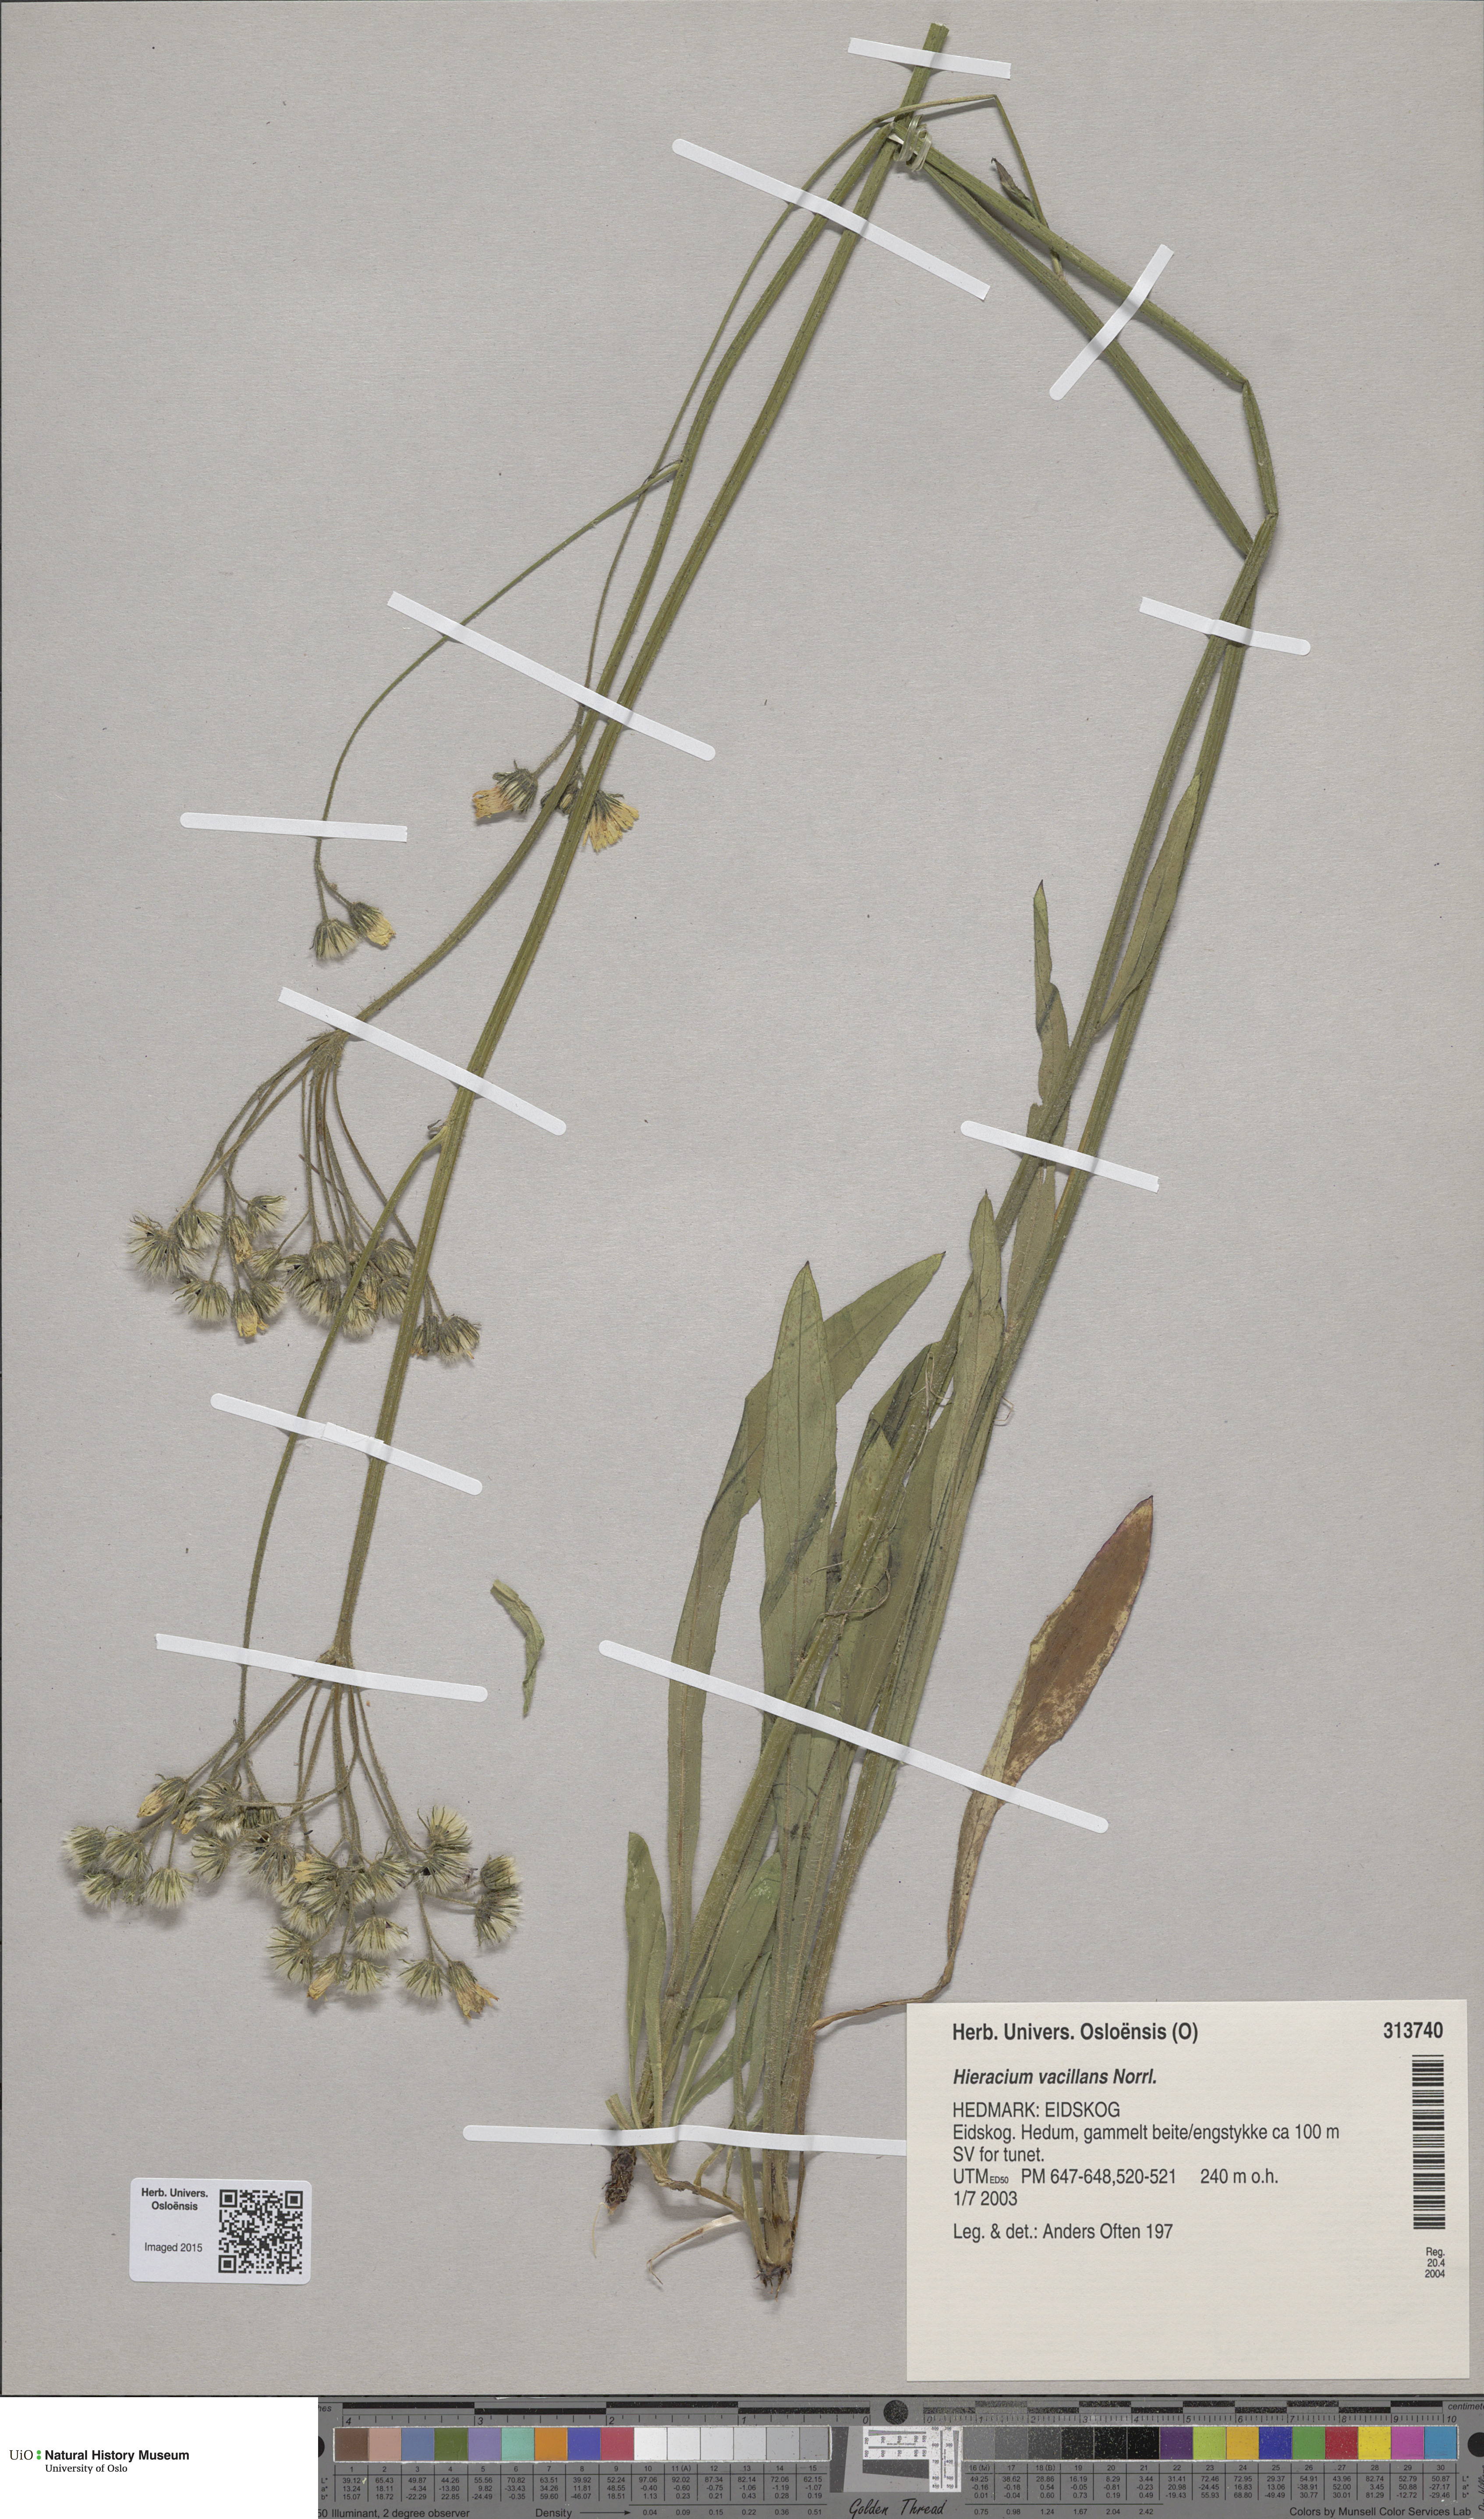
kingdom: Plantae
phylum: Tracheophyta
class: Magnoliopsida
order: Asterales
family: Asteraceae
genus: Pilosella
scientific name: Pilosella glomerata
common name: Queen devil hawkweed
